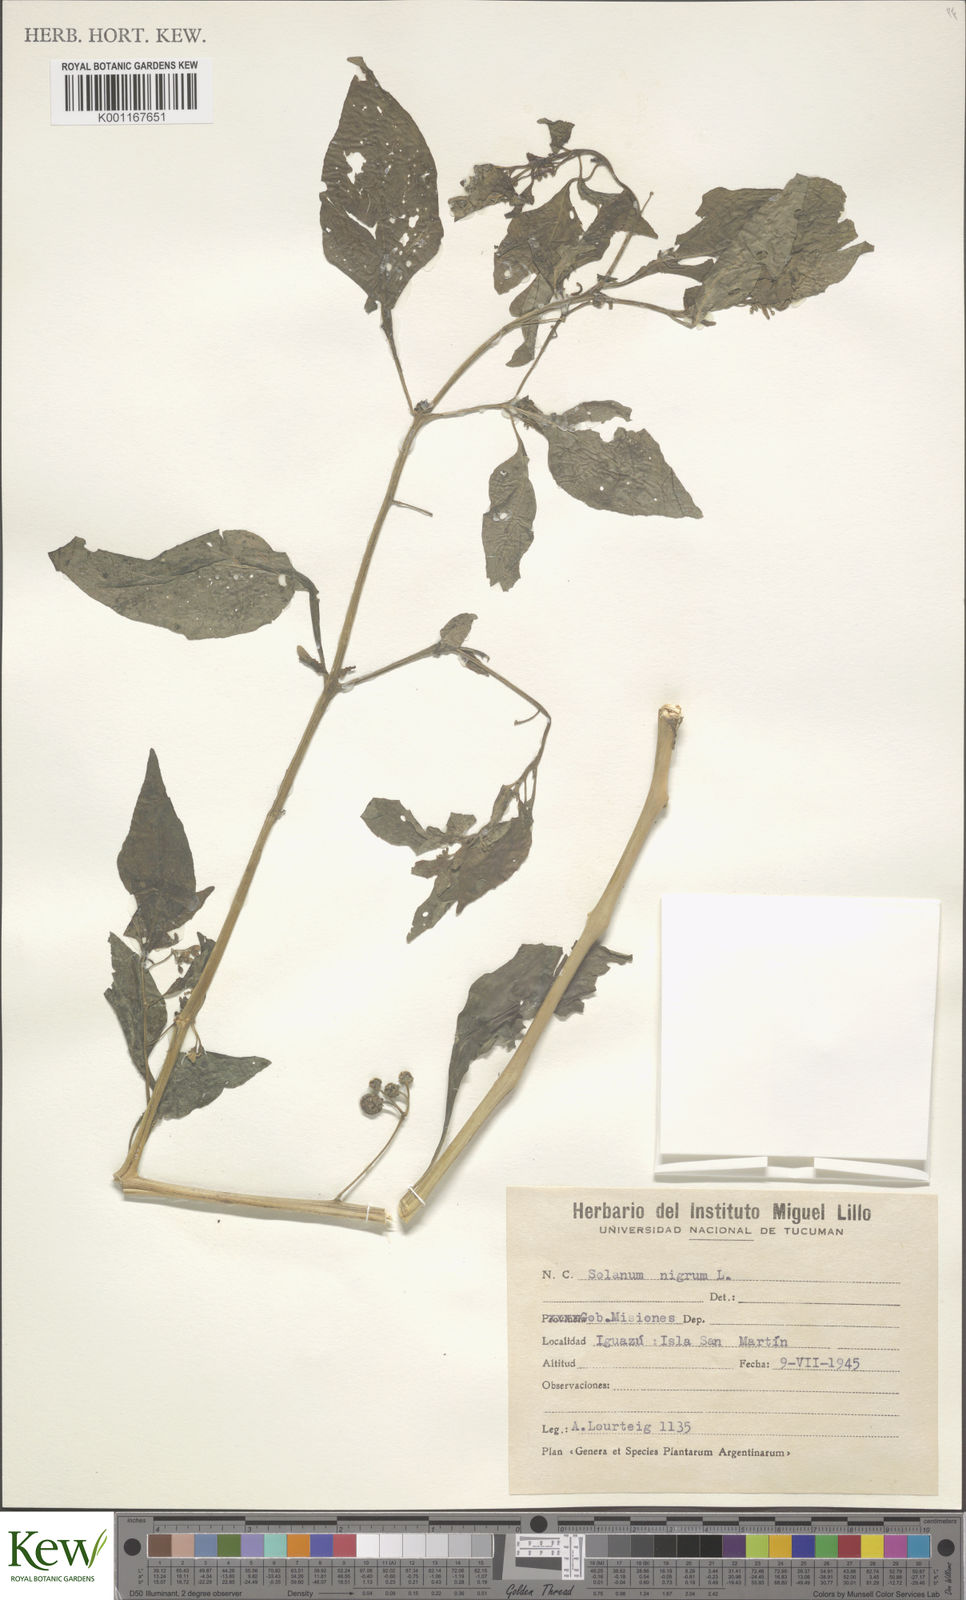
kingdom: Plantae
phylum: Tracheophyta
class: Magnoliopsida
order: Solanales
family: Solanaceae
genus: Solanum
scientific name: Solanum americanum
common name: American black nightshade
